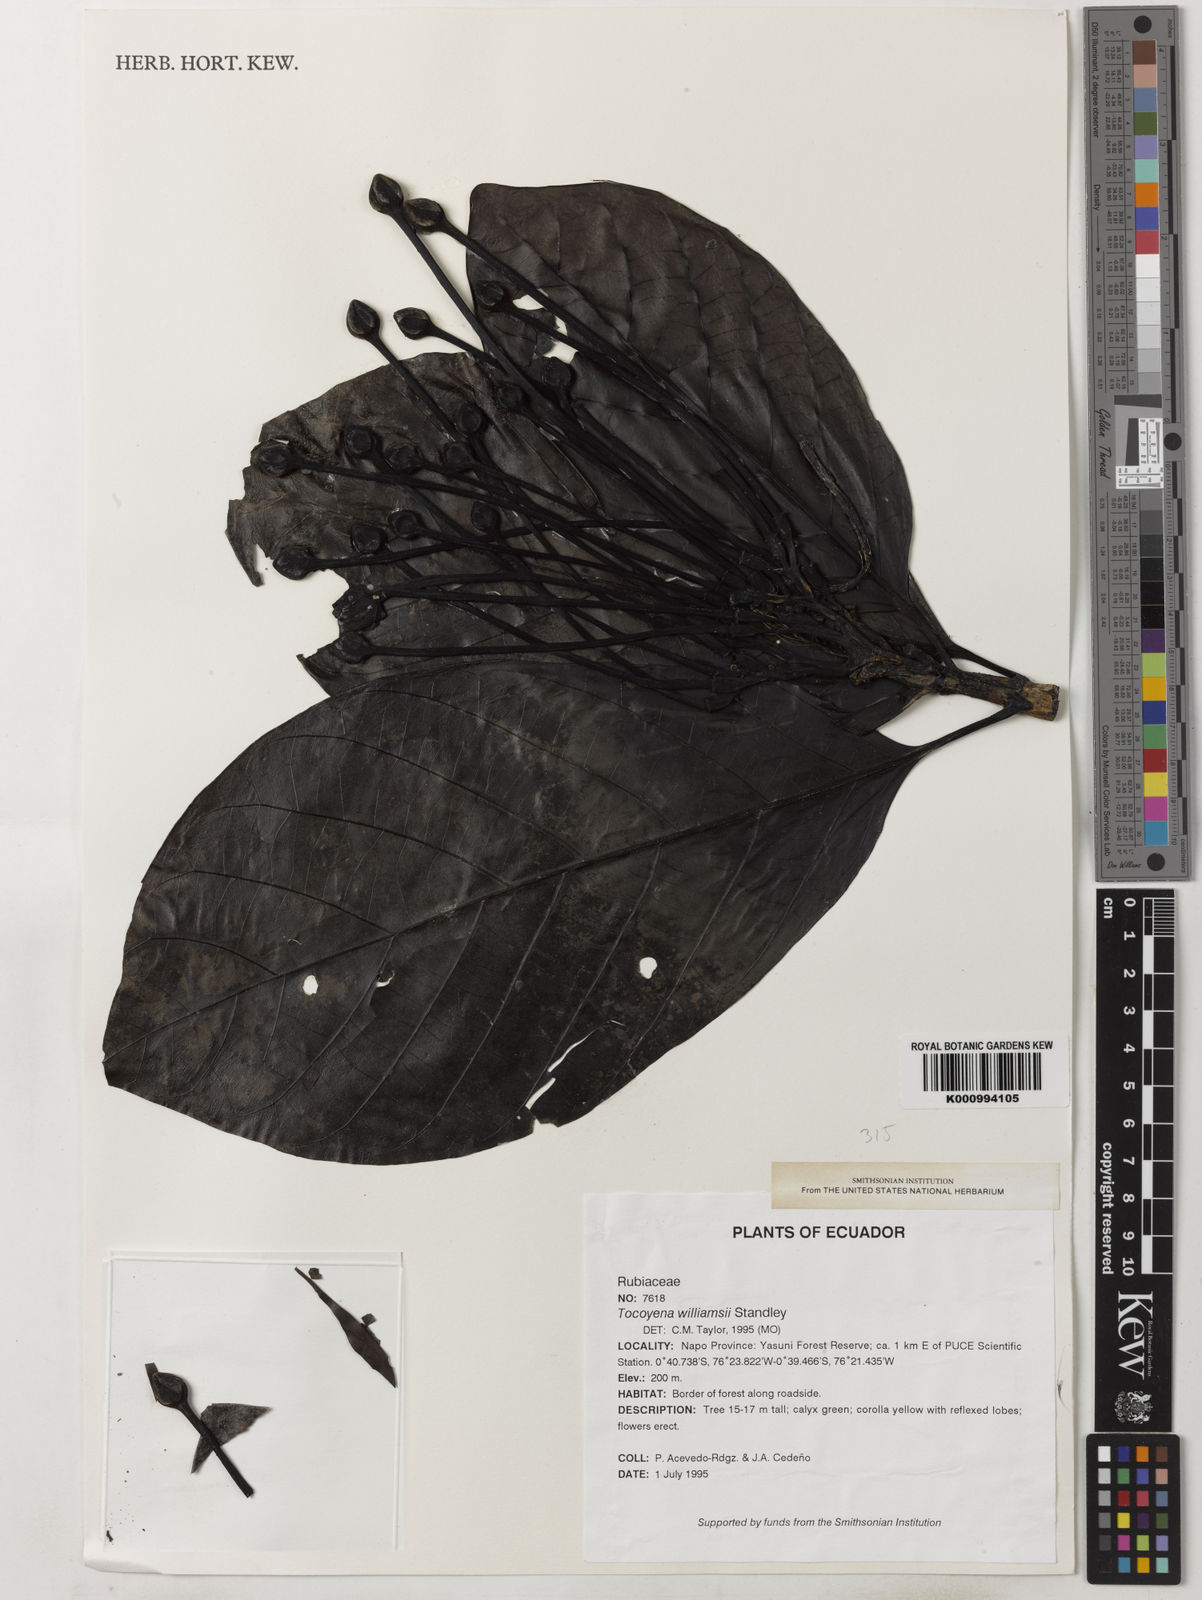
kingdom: Plantae
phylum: Tracheophyta
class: Magnoliopsida
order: Gentianales
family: Rubiaceae
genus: Tocoyena
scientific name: Tocoyena pittieri
